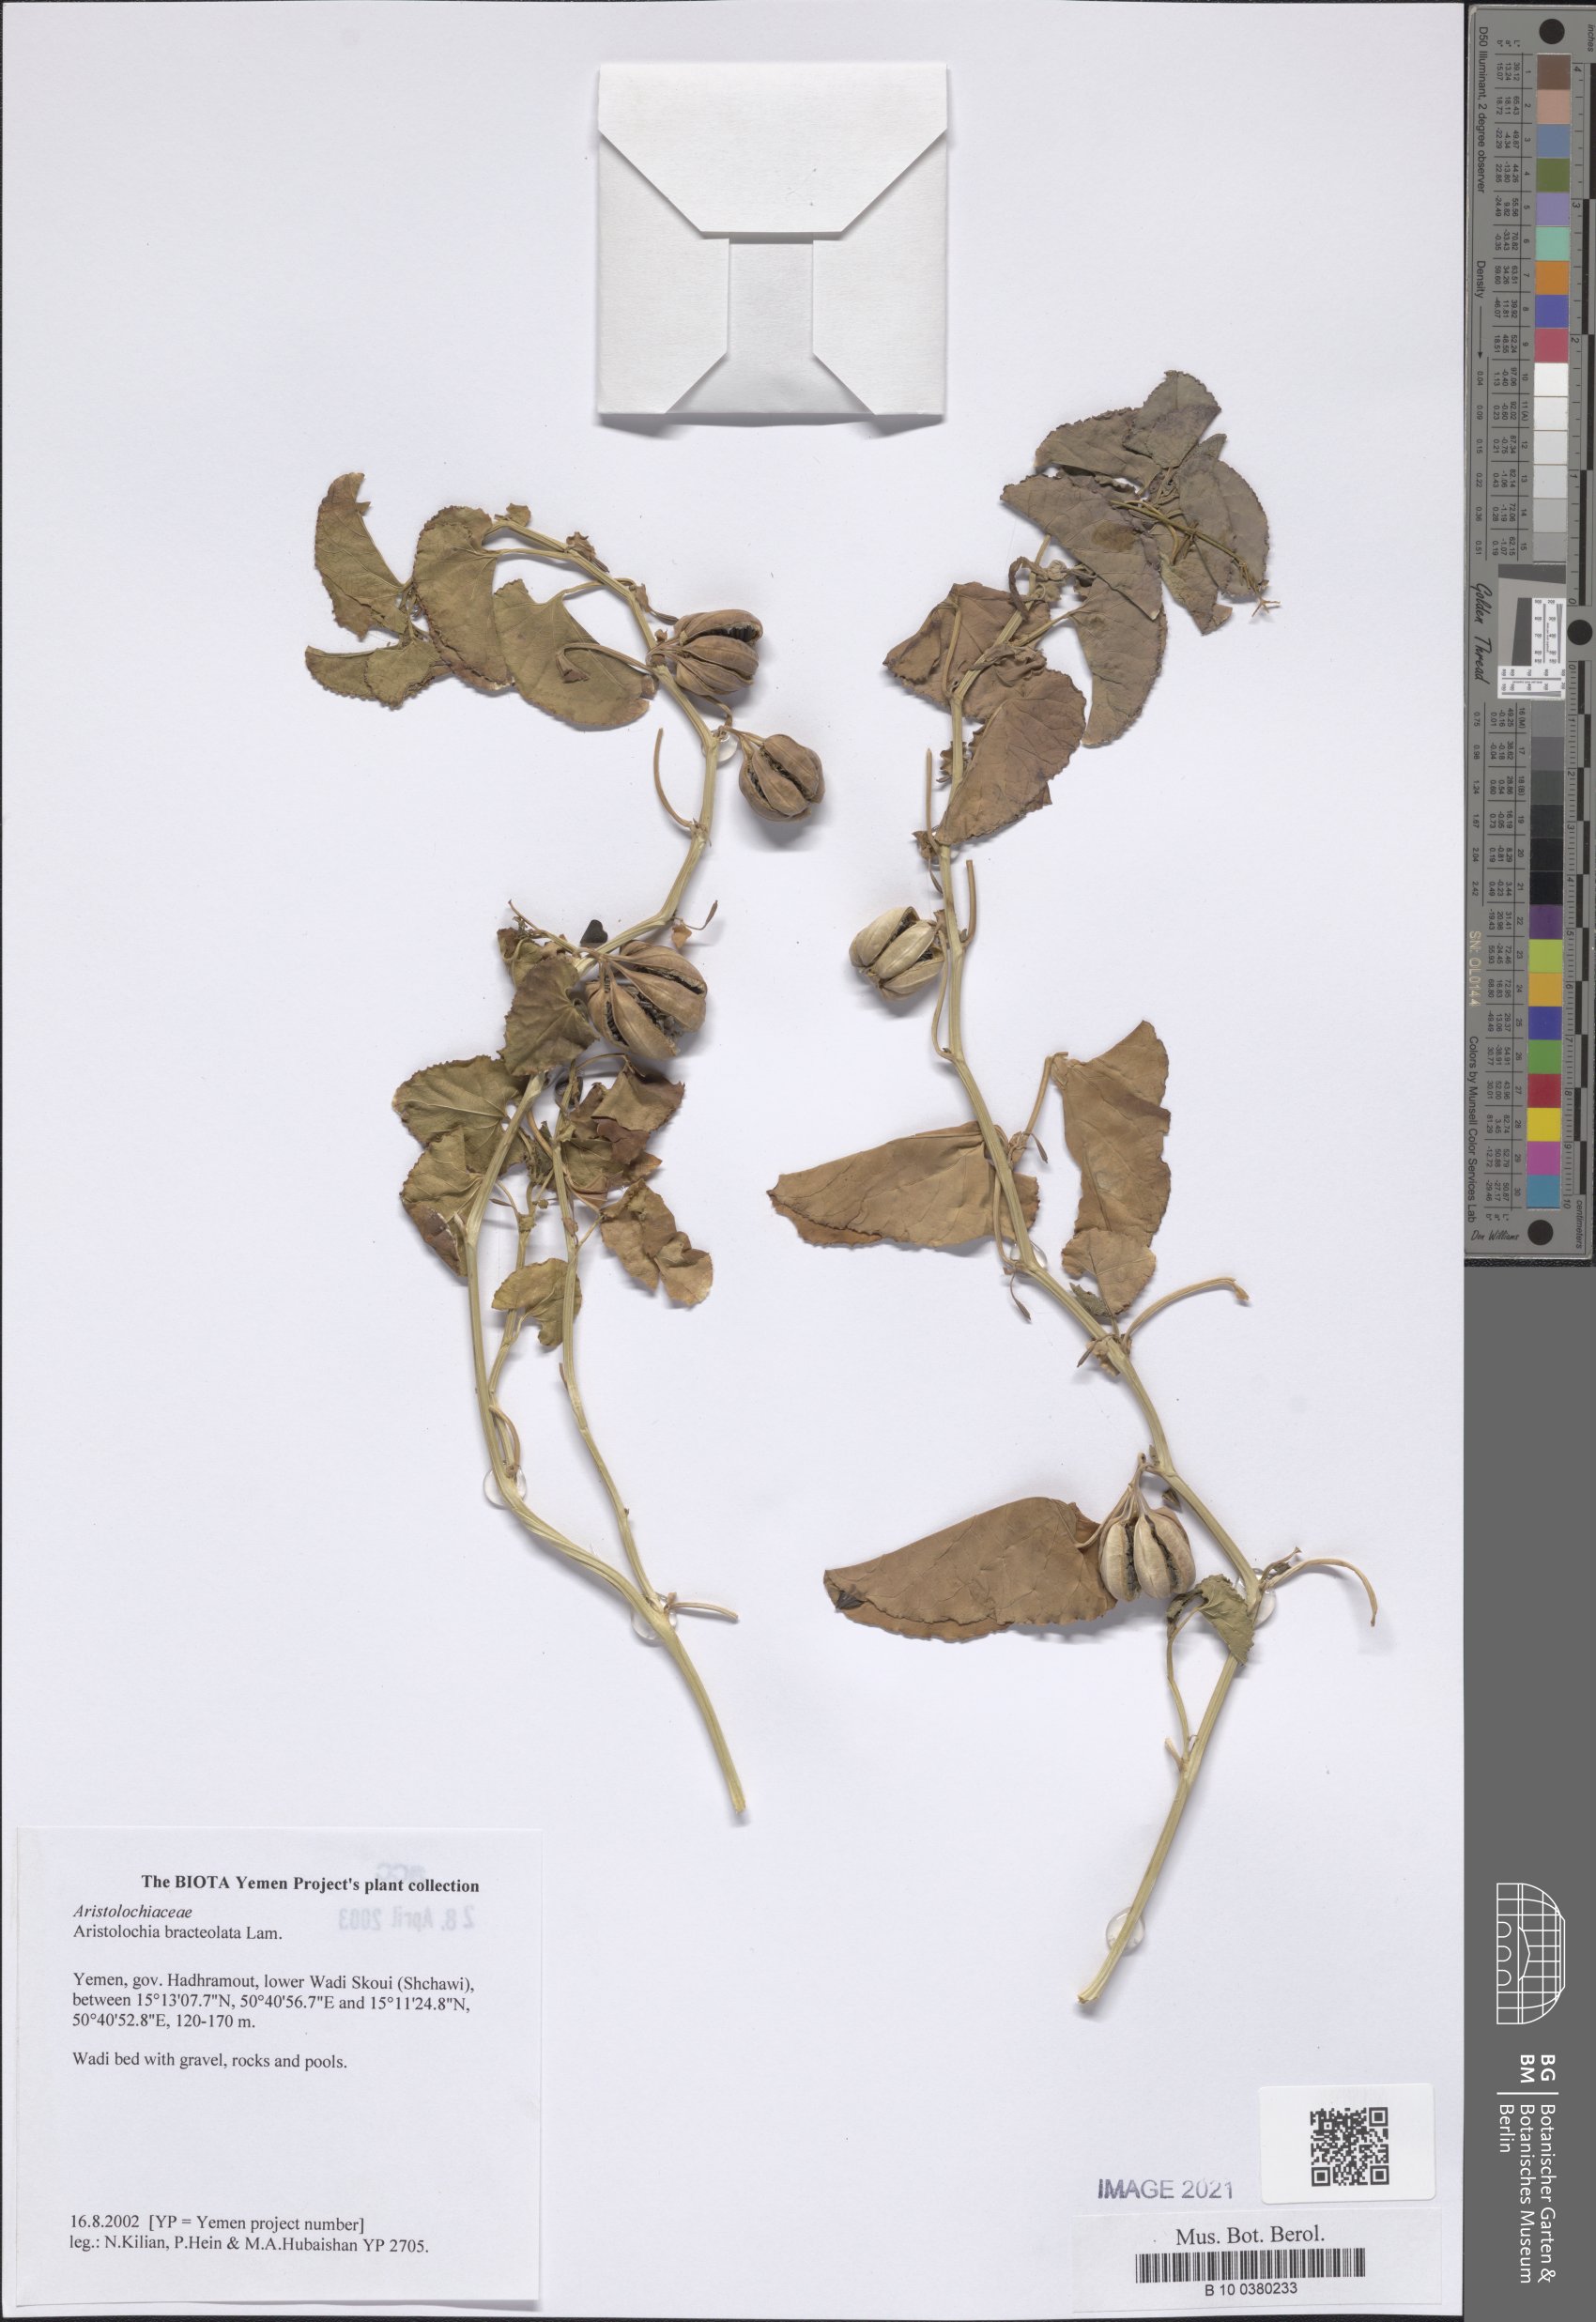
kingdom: Plantae
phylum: Tracheophyta
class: Magnoliopsida
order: Piperales
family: Aristolochiaceae
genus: Aristolochia
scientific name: Aristolochia bracteolata
